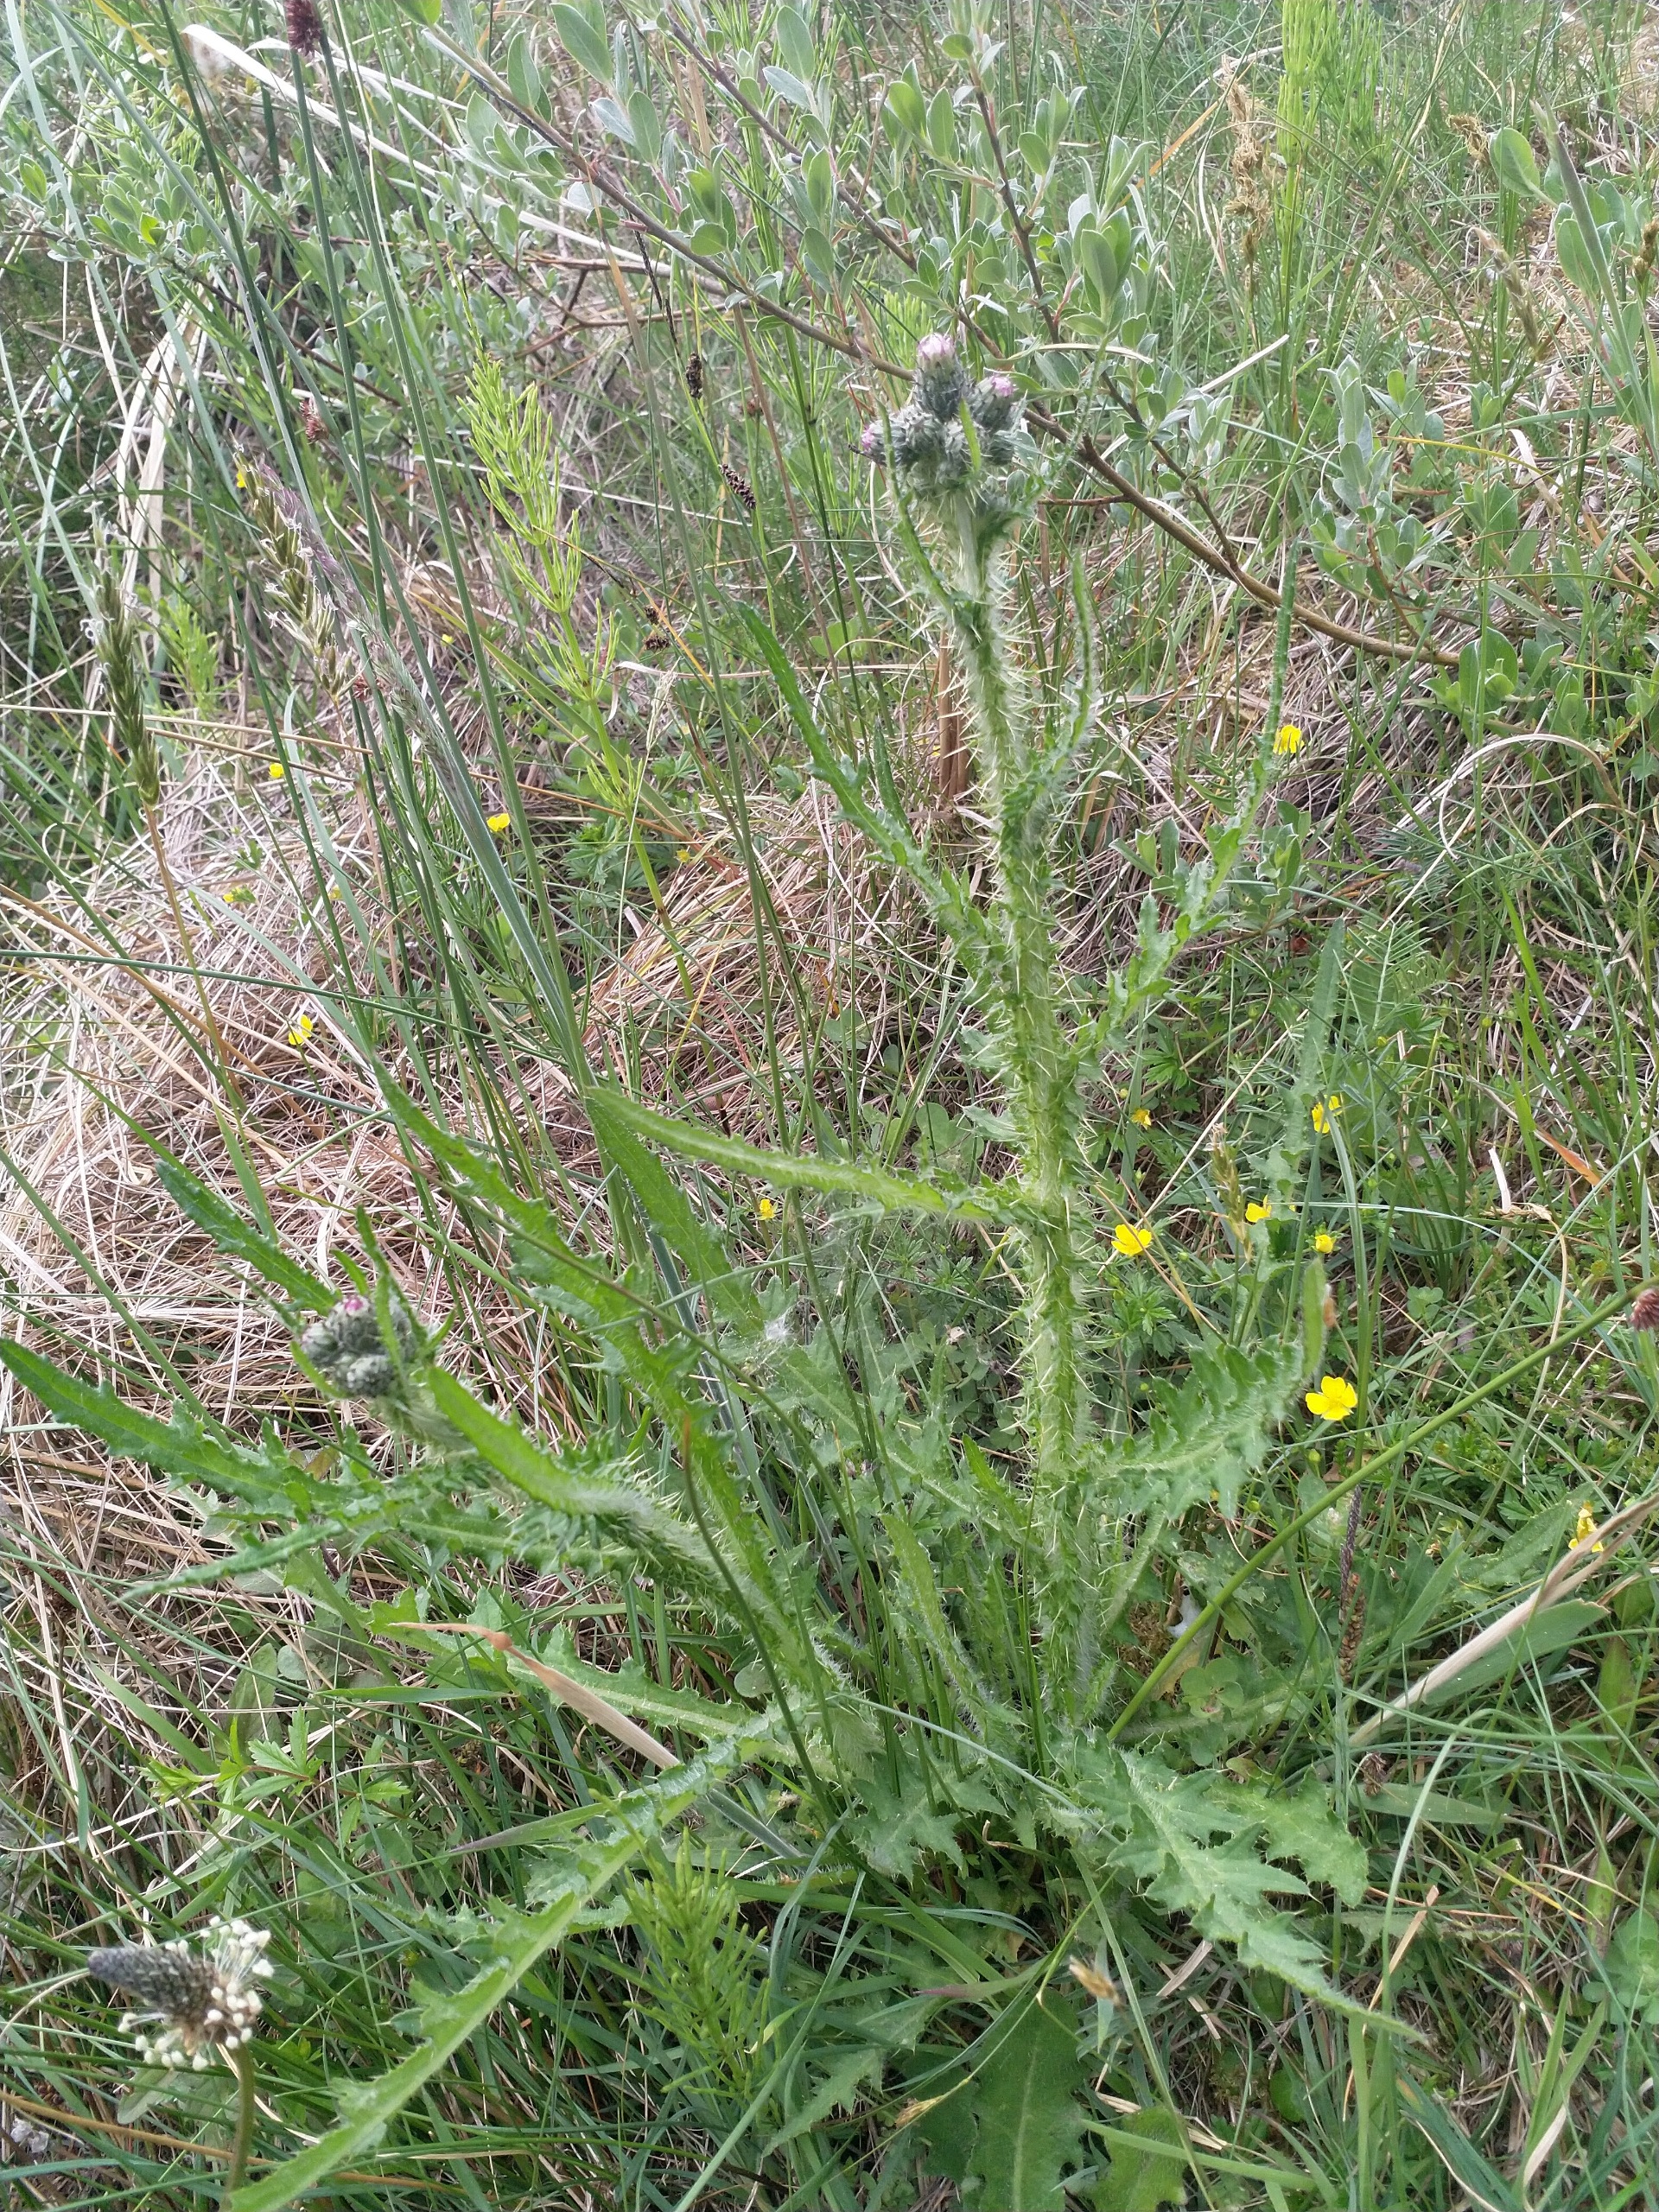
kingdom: Plantae
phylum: Tracheophyta
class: Magnoliopsida
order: Asterales
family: Asteraceae
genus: Cirsium
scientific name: Cirsium vulgare
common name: Horse-tidsel
